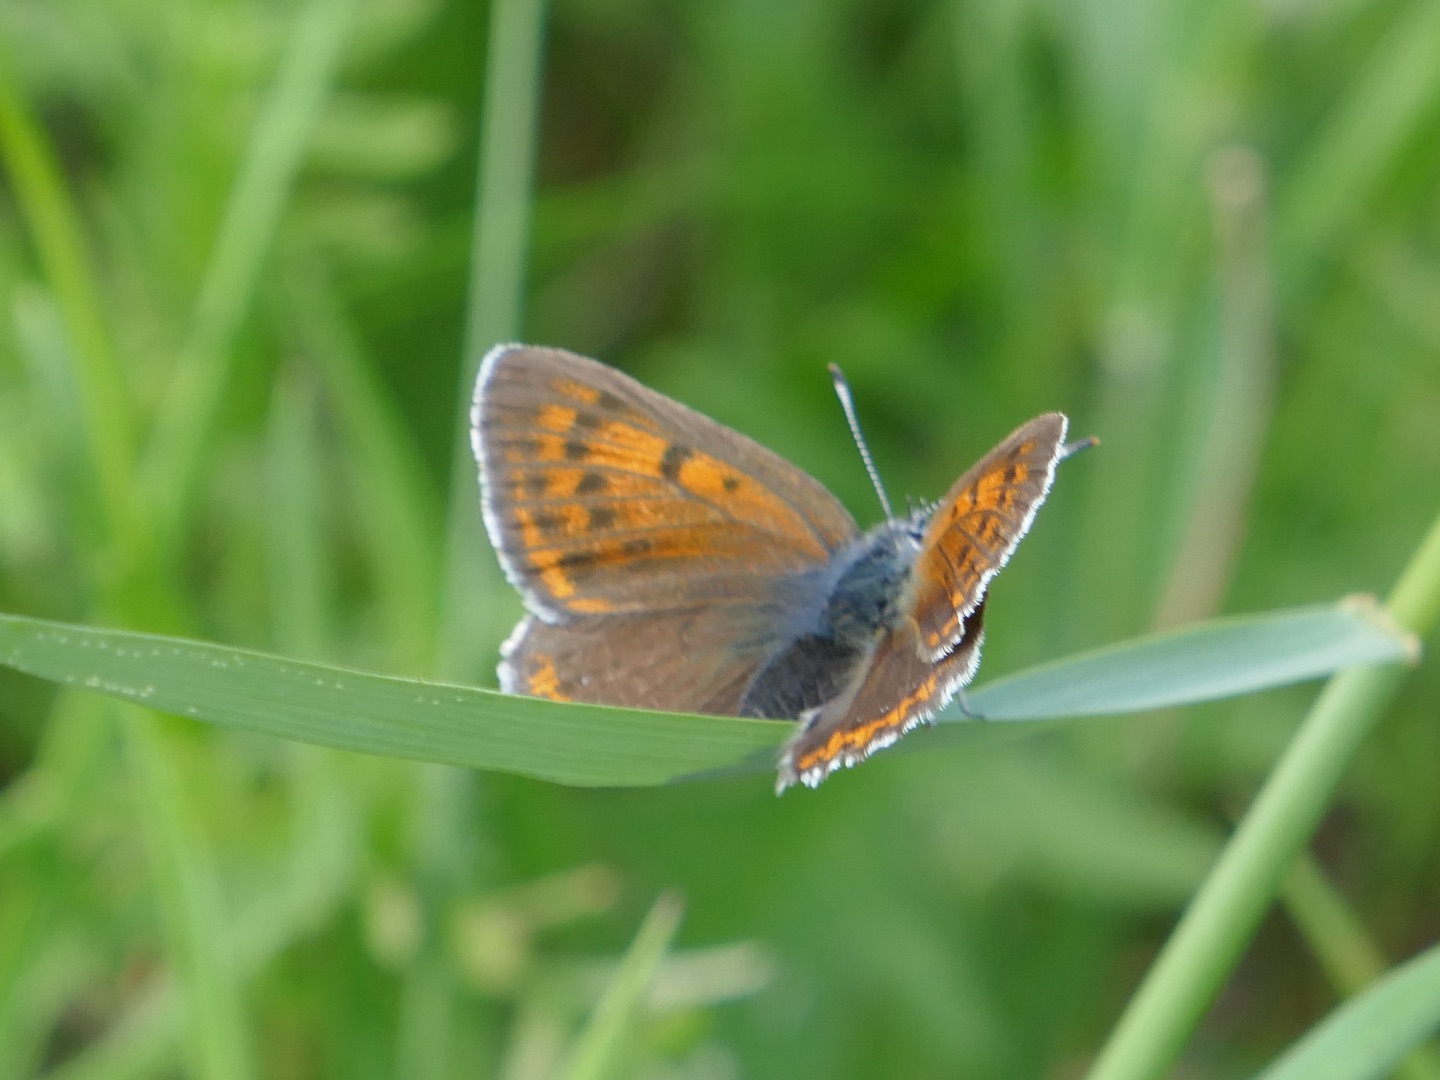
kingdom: Animalia
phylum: Arthropoda
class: Insecta
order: Lepidoptera
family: Lycaenidae
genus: Palaeochrysophanus
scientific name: Palaeochrysophanus hippothoe
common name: Violetrandet ildfugl
